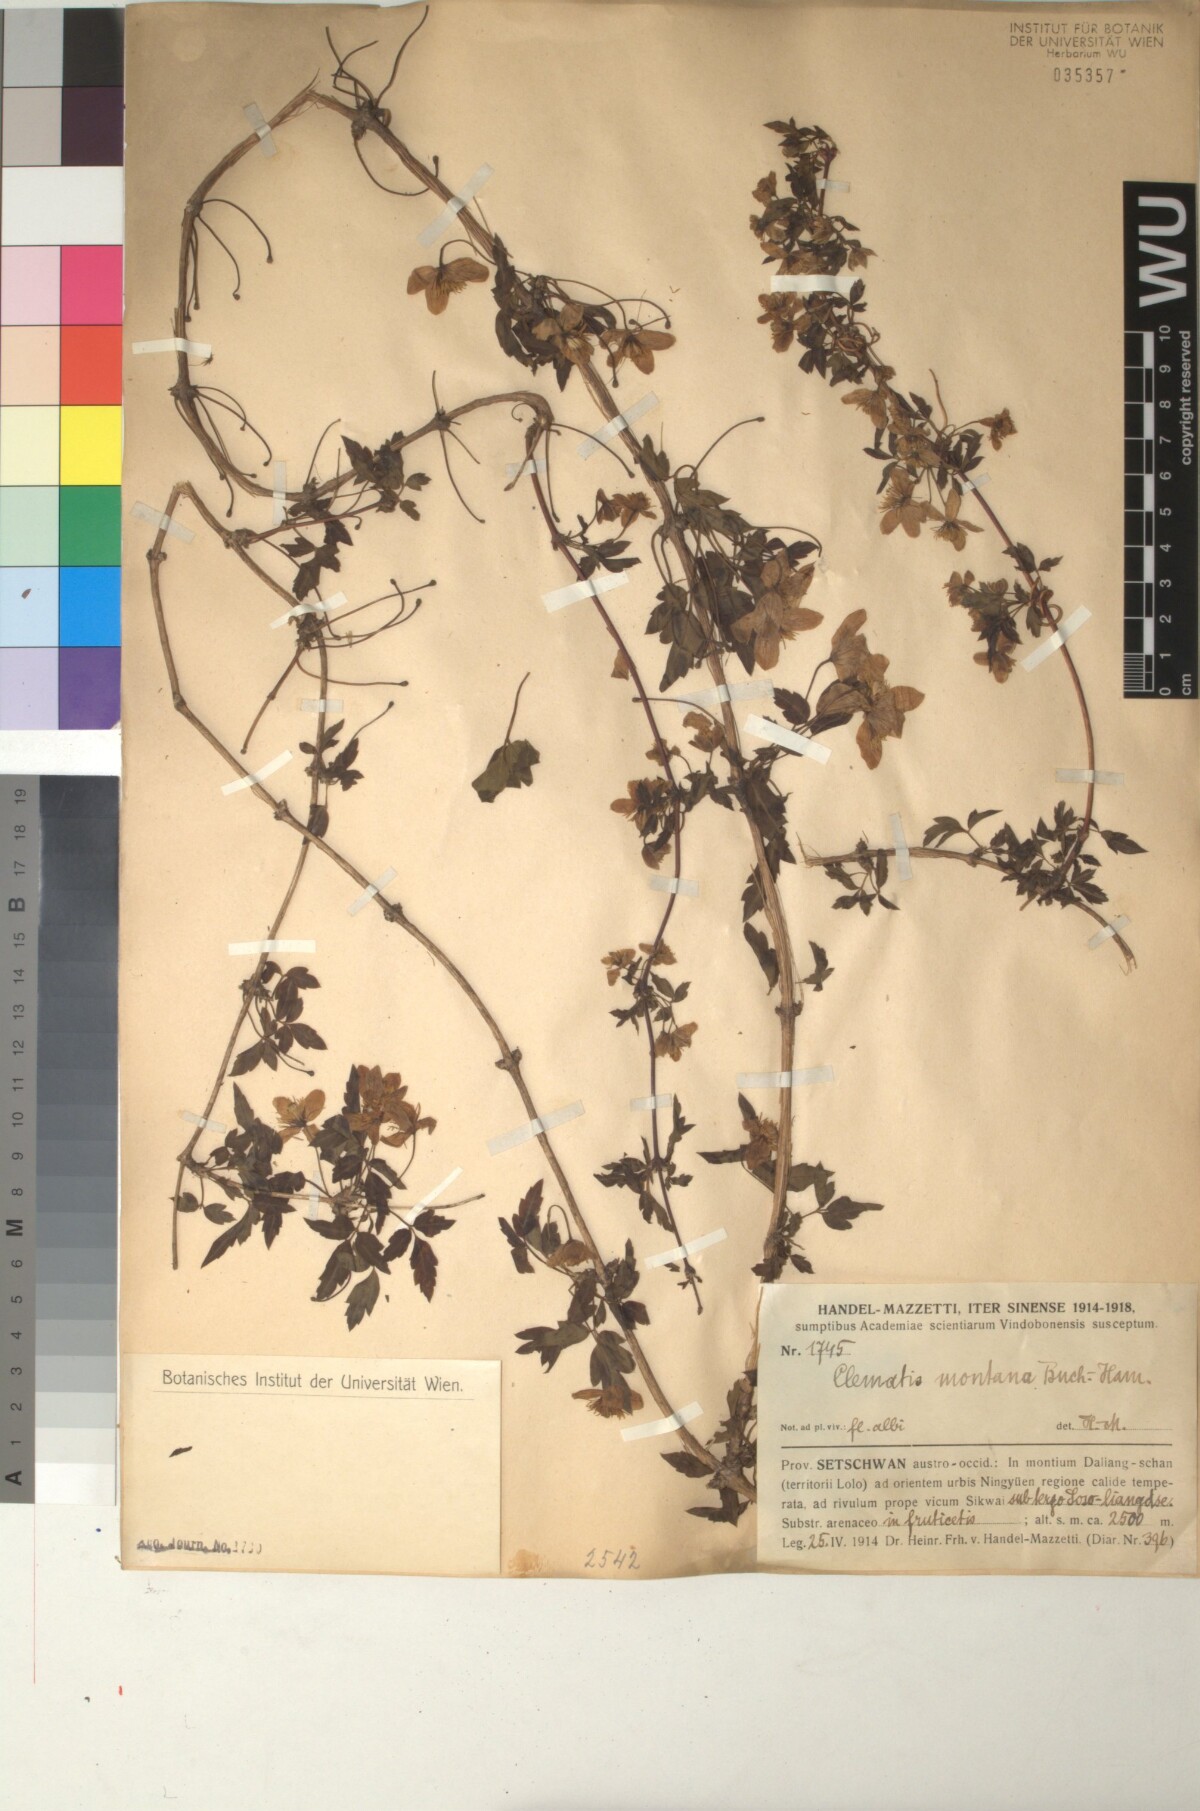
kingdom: Plantae
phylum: Tracheophyta
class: Magnoliopsida
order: Ranunculales
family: Ranunculaceae
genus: Clematis
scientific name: Clematis montana
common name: Himalayan clematis
